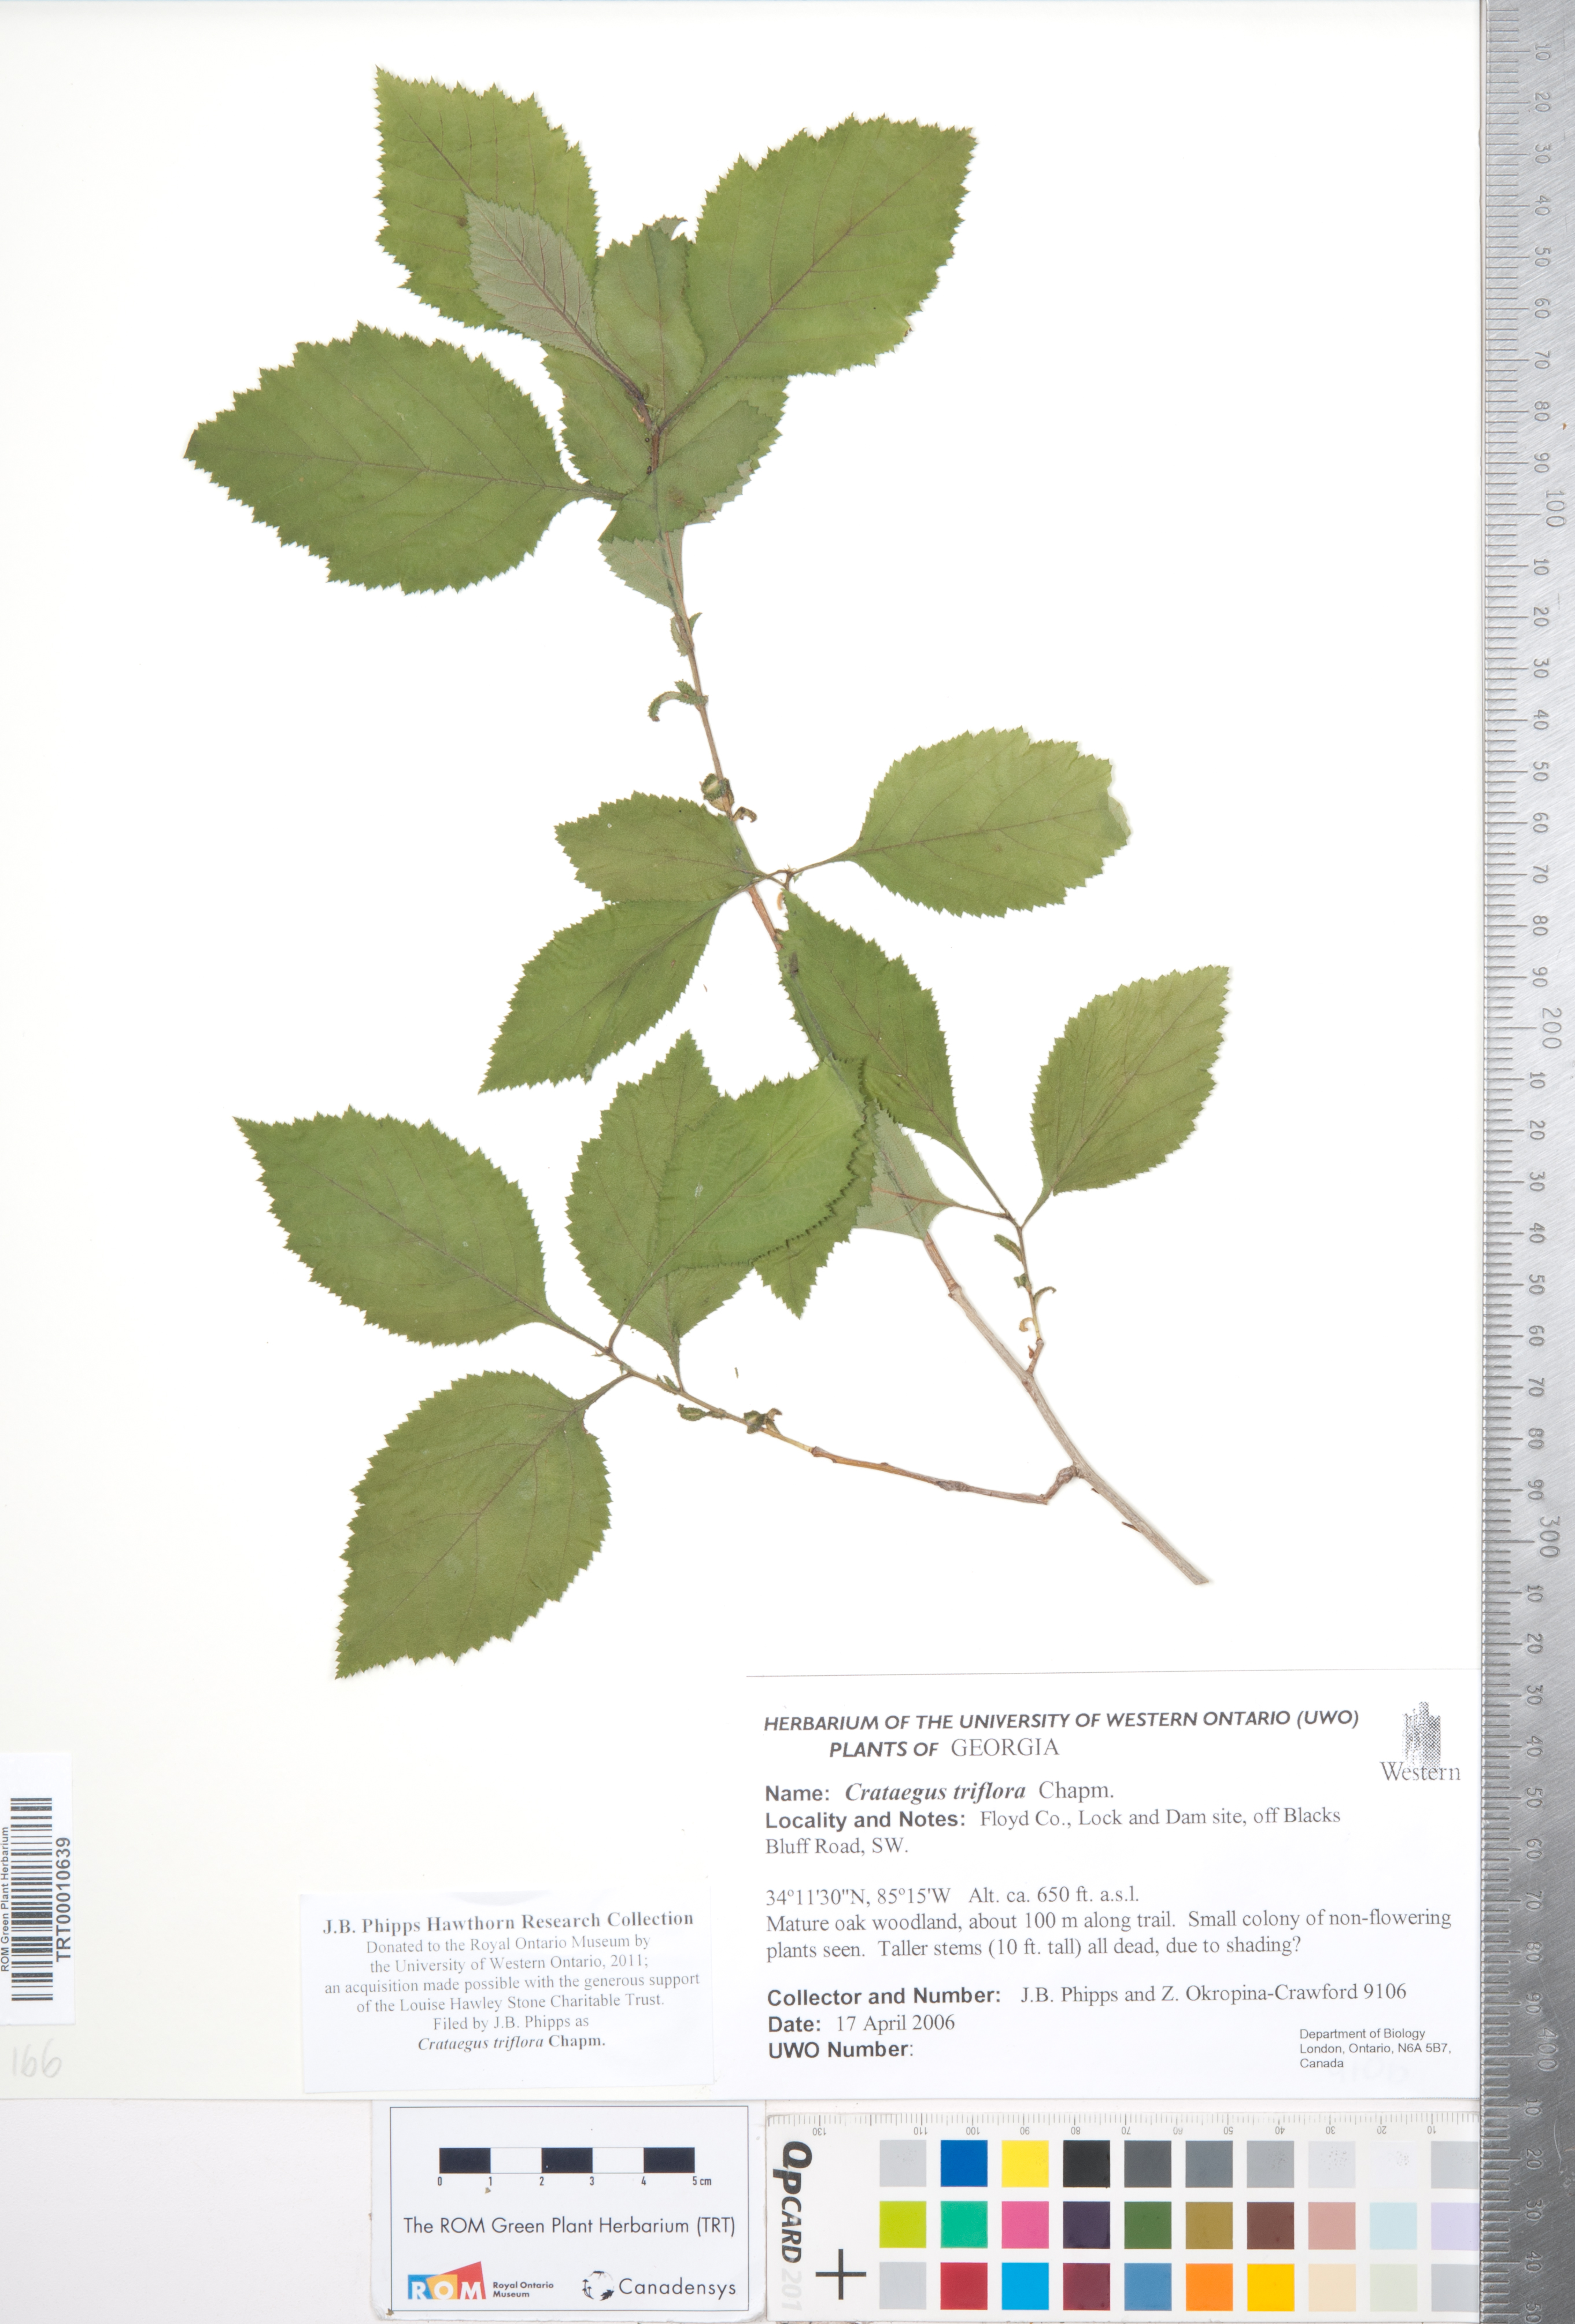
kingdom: Plantae
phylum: Tracheophyta
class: Magnoliopsida
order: Rosales
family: Rosaceae
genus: Crataegus
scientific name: Crataegus triflora
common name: Three-flower hawthorn
